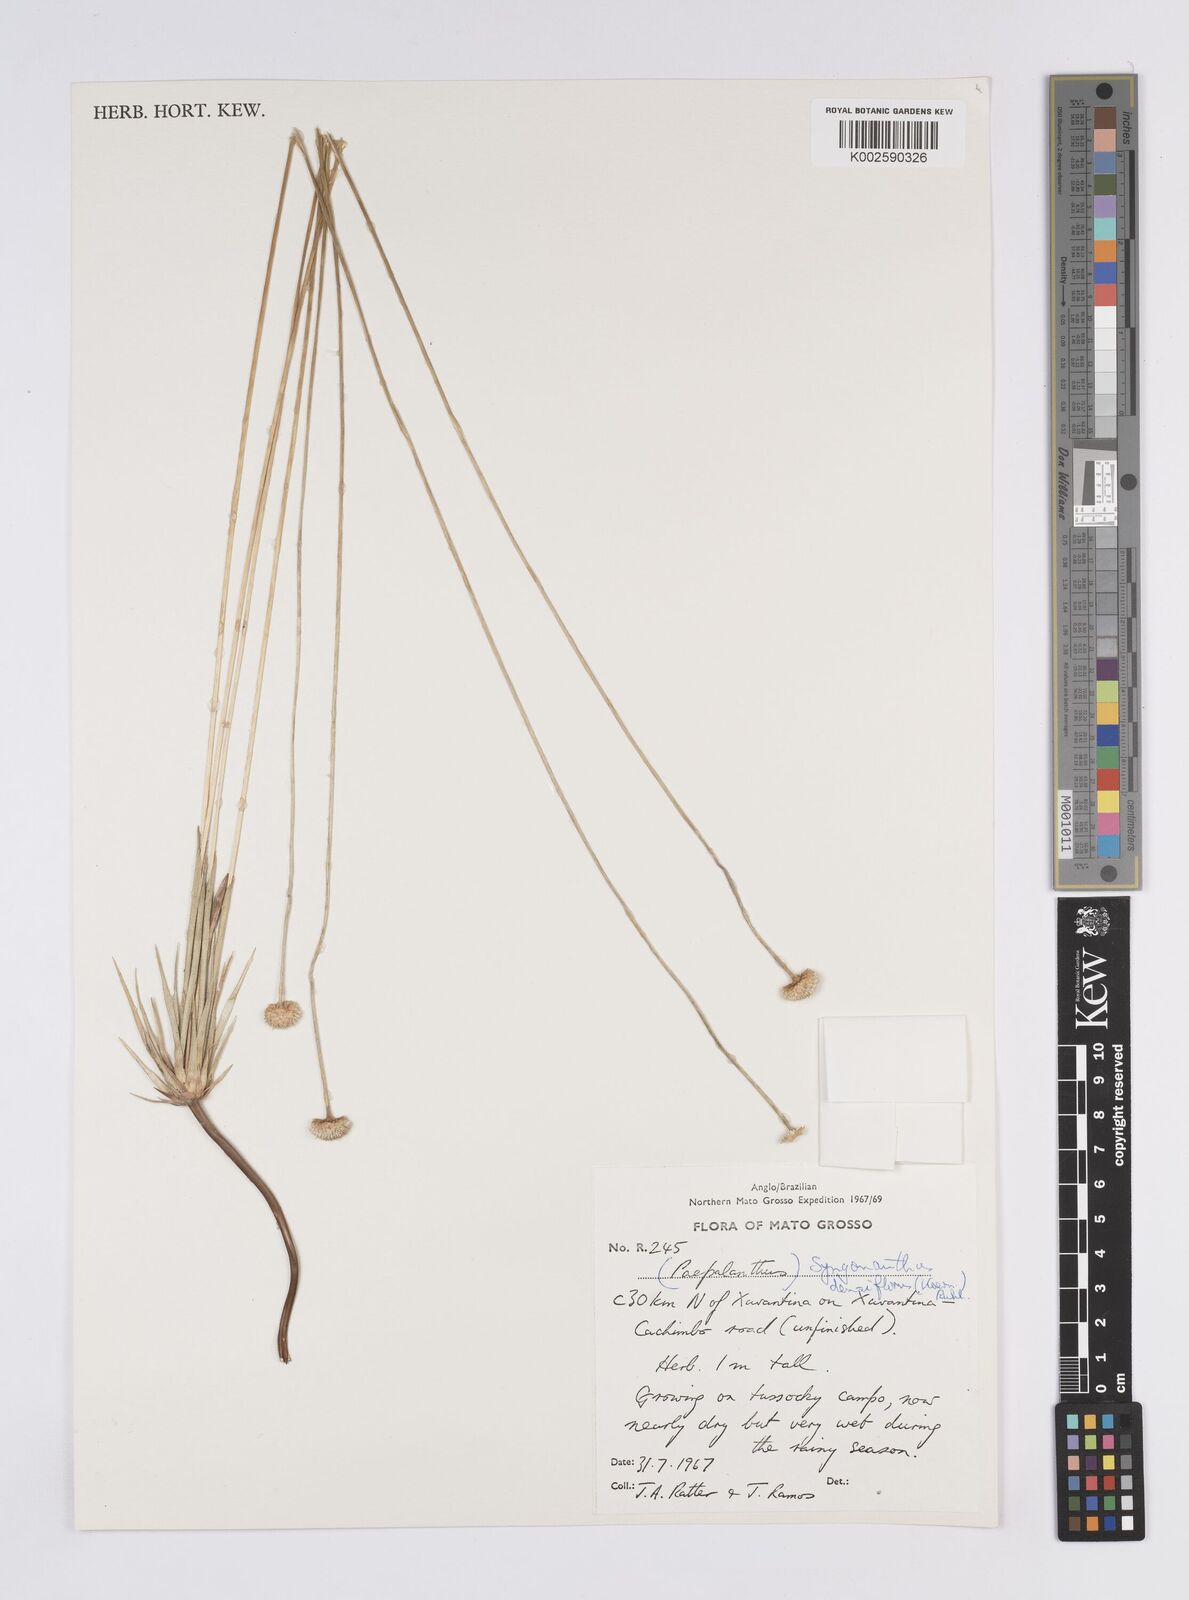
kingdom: Plantae
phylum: Tracheophyta
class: Liliopsida
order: Poales
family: Eriocaulaceae
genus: Syngonanthus
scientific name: Syngonanthus densiflorus
